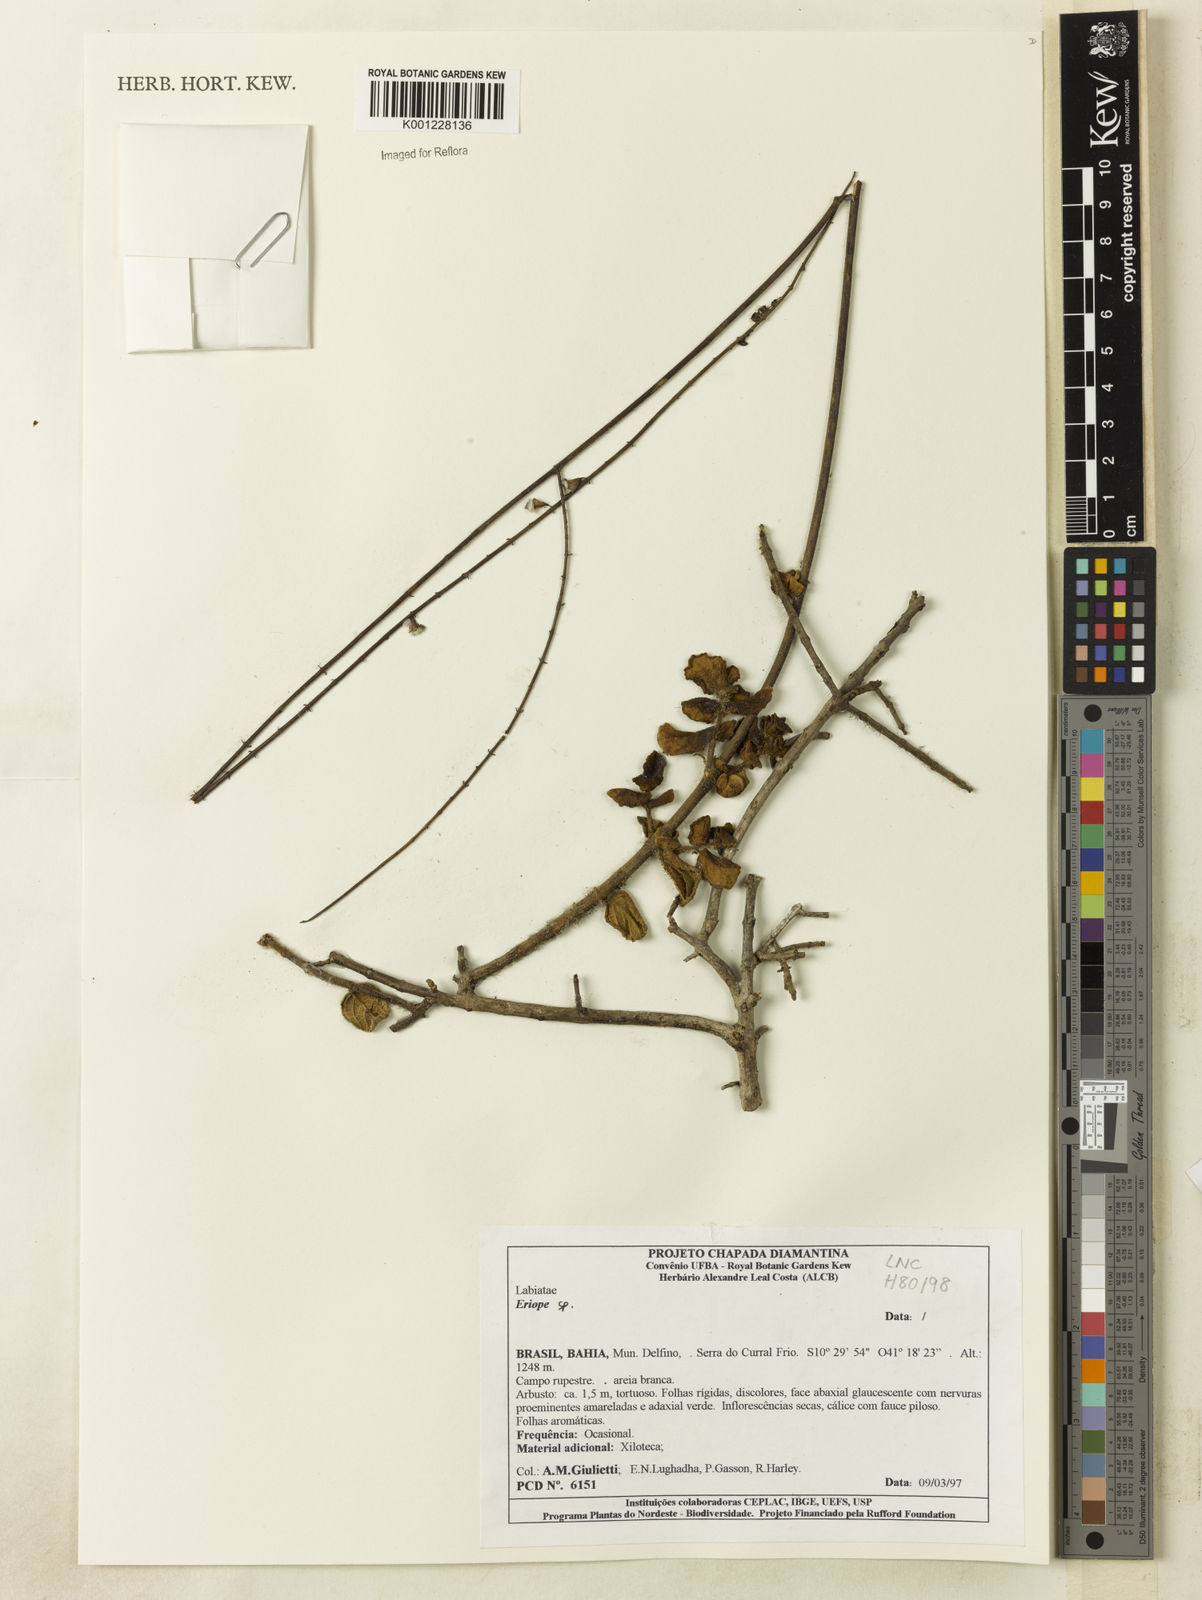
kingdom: Plantae
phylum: Tracheophyta
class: Magnoliopsida
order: Lamiales
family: Lamiaceae
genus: Eriope
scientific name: Eriope
